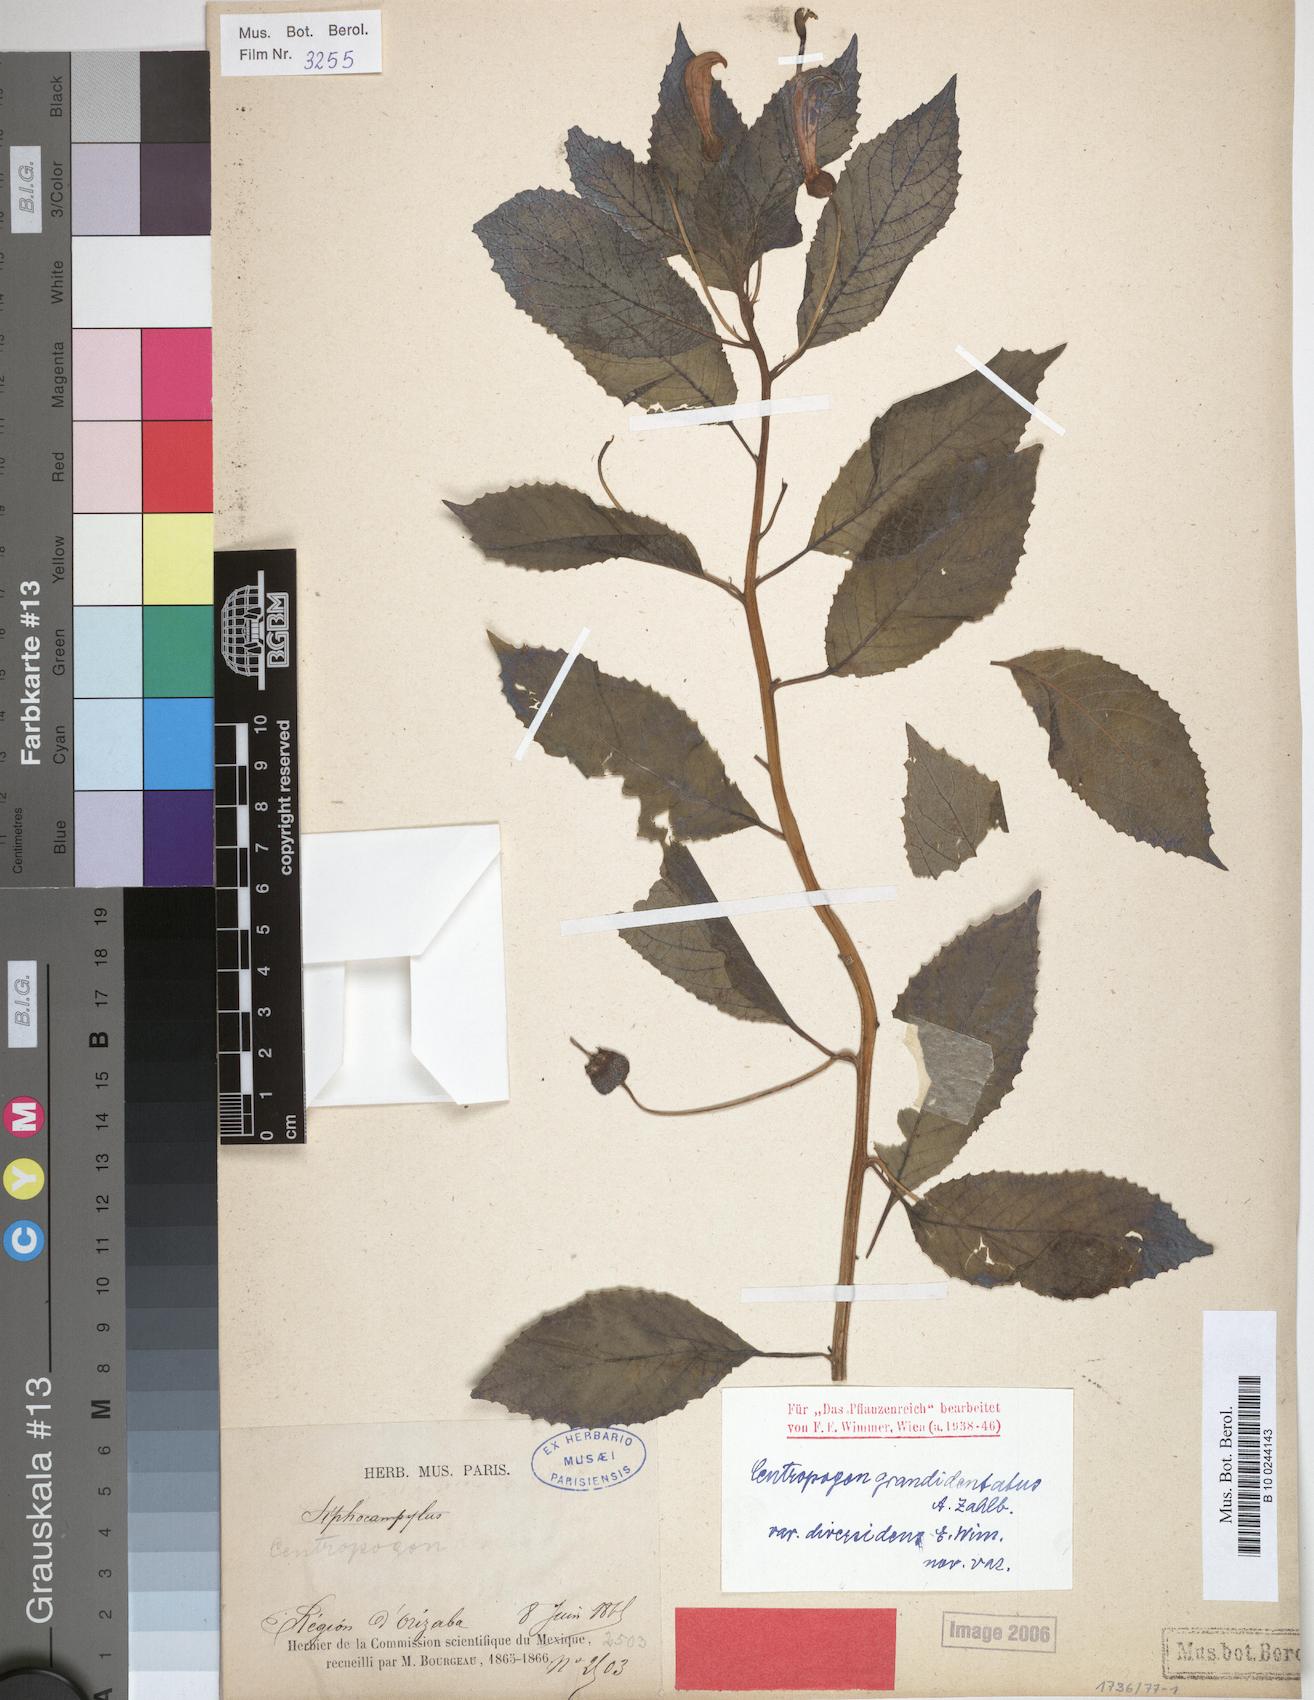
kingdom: Plantae
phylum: Tracheophyta
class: Magnoliopsida
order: Asterales
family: Campanulaceae
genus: Centropogon
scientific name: Centropogon grandidentatus
